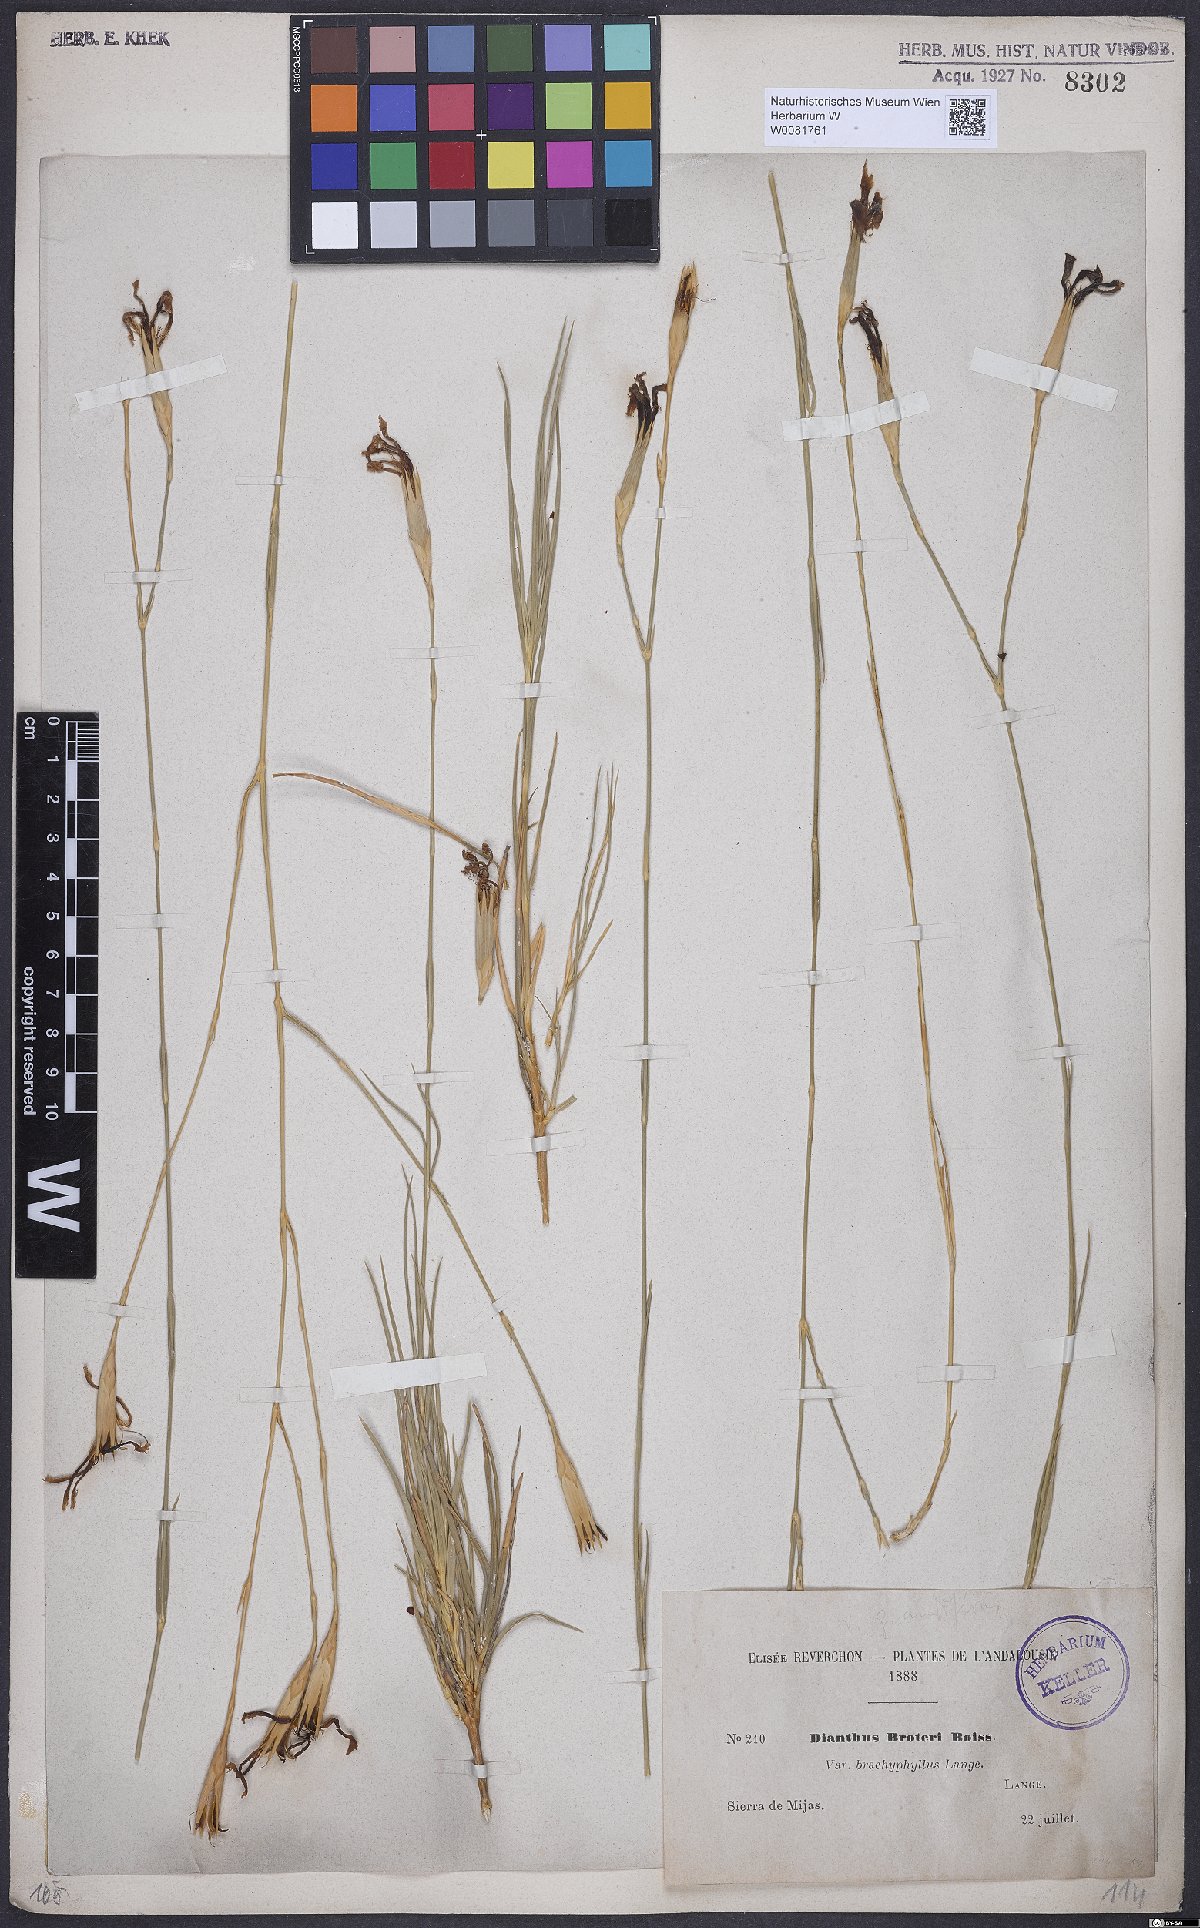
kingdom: Plantae
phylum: Tracheophyta
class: Magnoliopsida
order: Caryophyllales
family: Caryophyllaceae
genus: Dianthus
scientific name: Dianthus broteri
